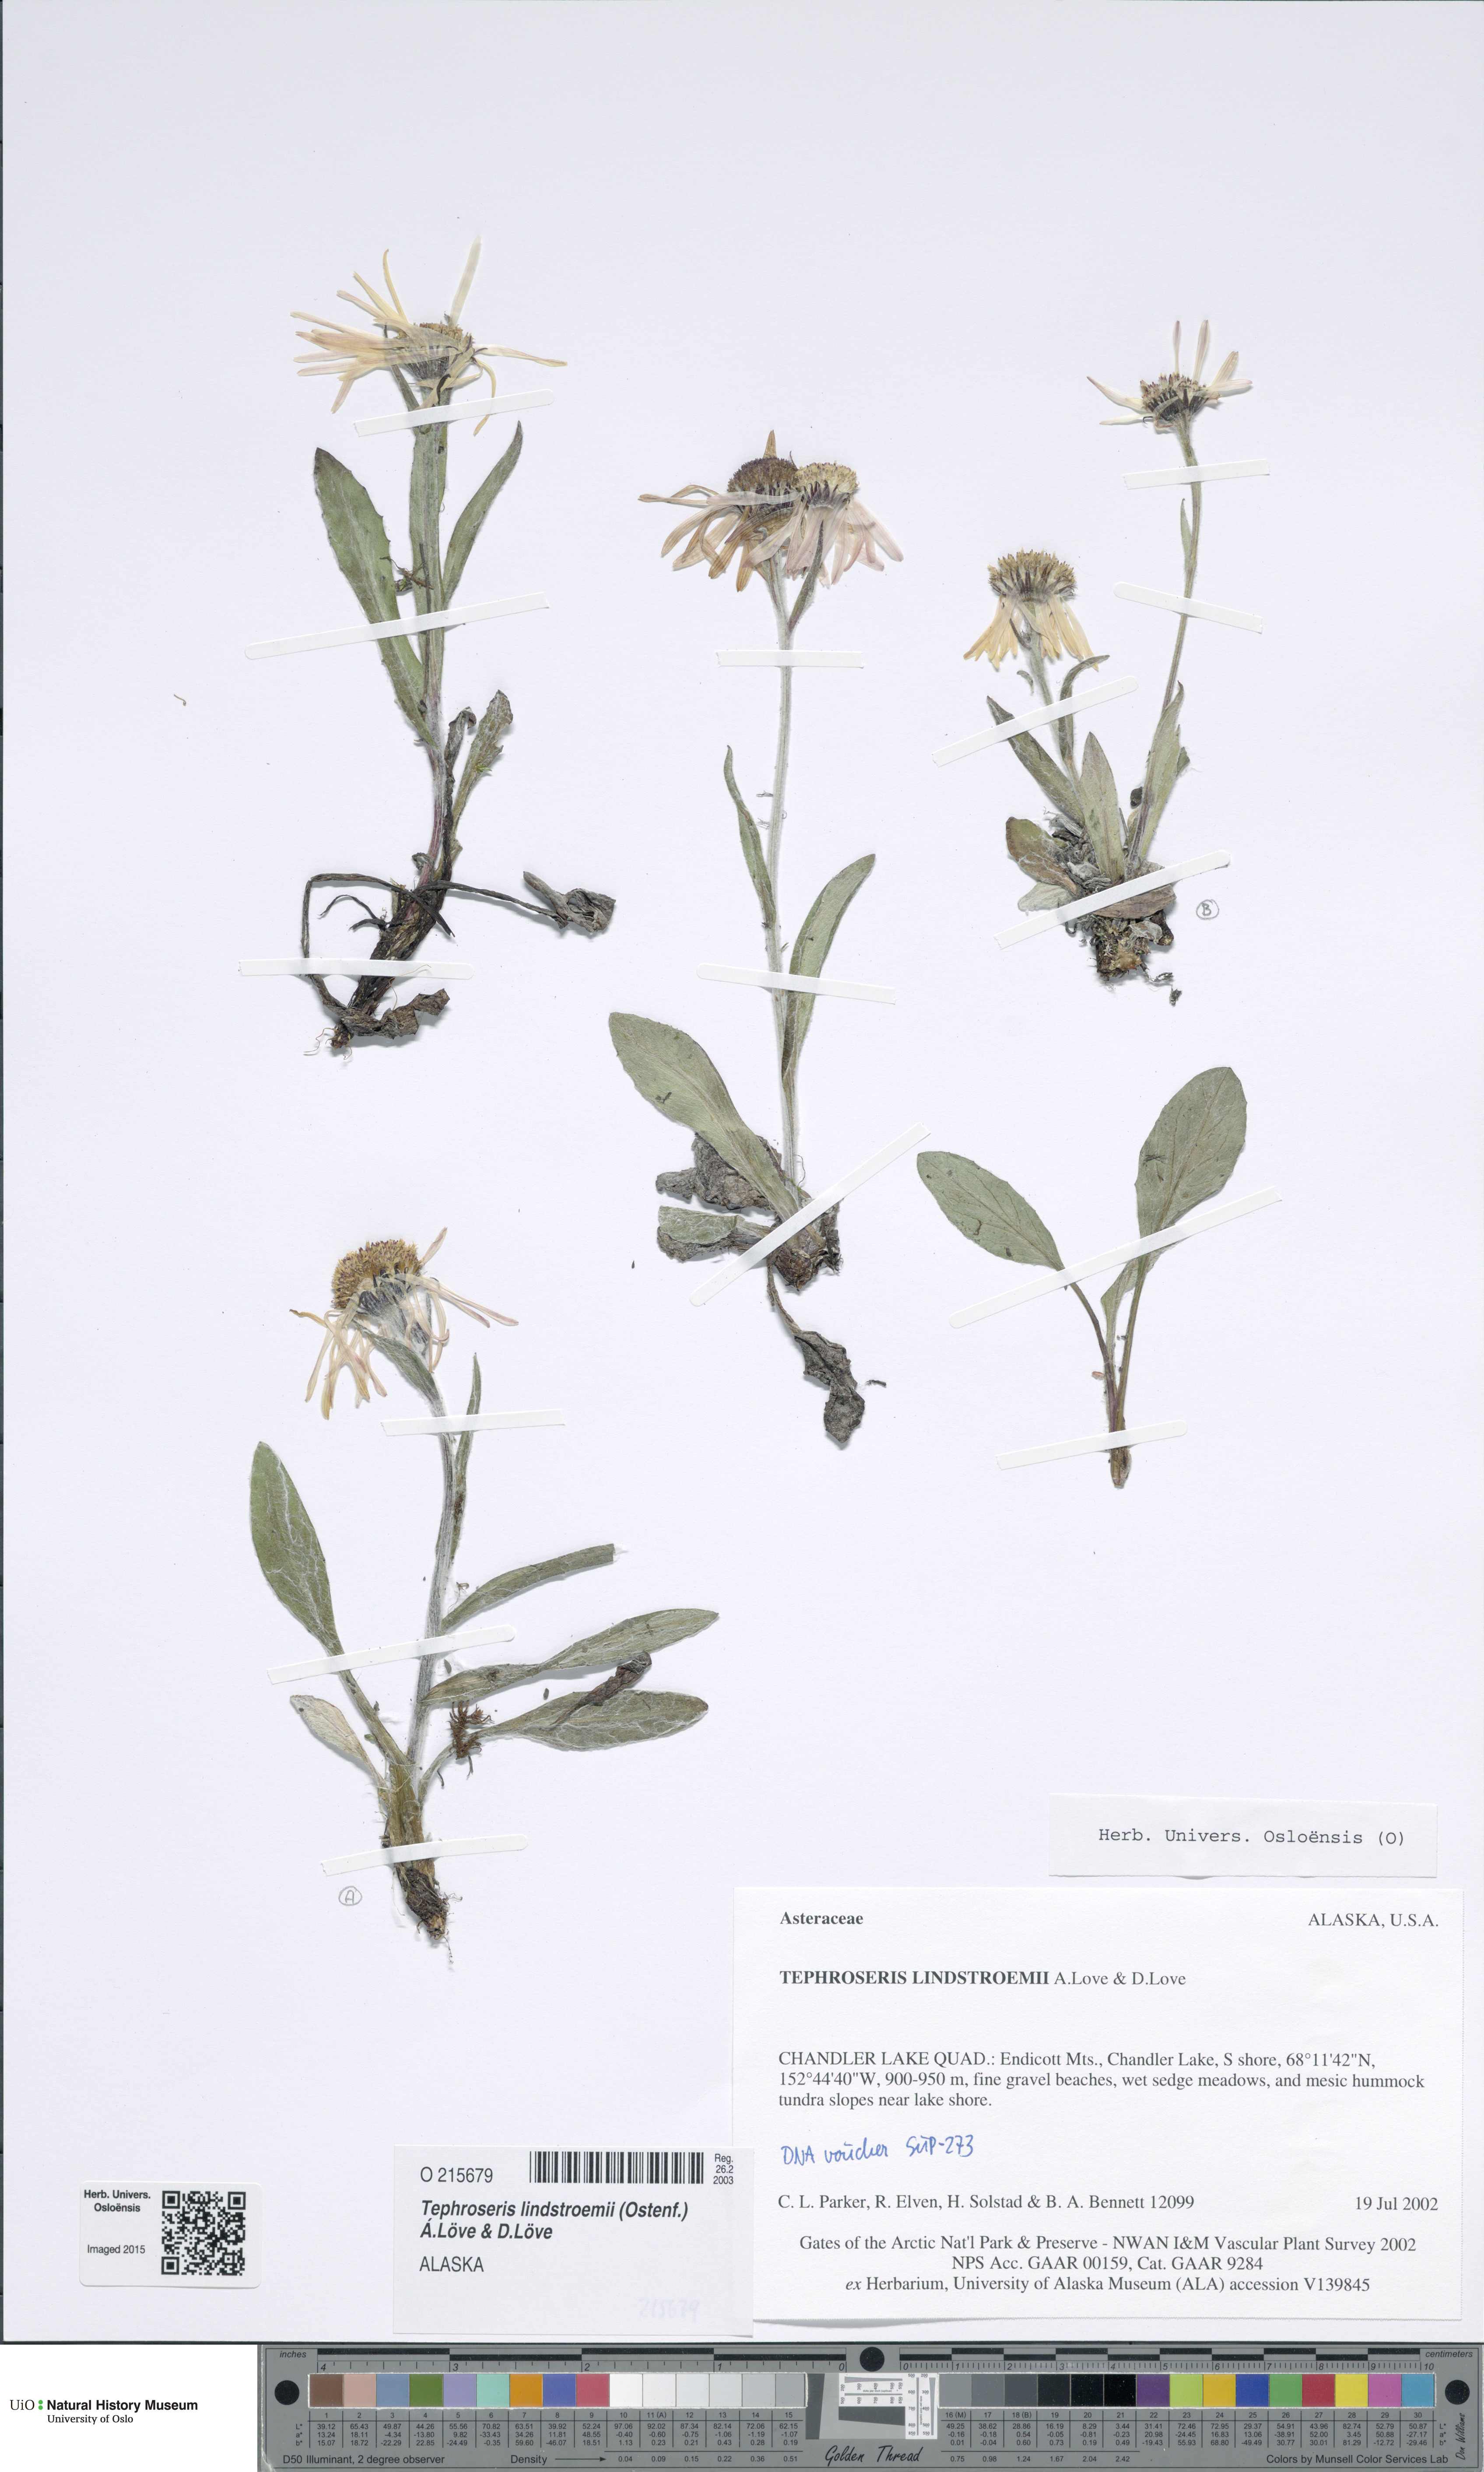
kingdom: Plantae
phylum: Tracheophyta
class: Magnoliopsida
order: Asterales
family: Asteraceae
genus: Tephroseris
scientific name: Tephroseris lindstroemii
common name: Lindström's groundsel
